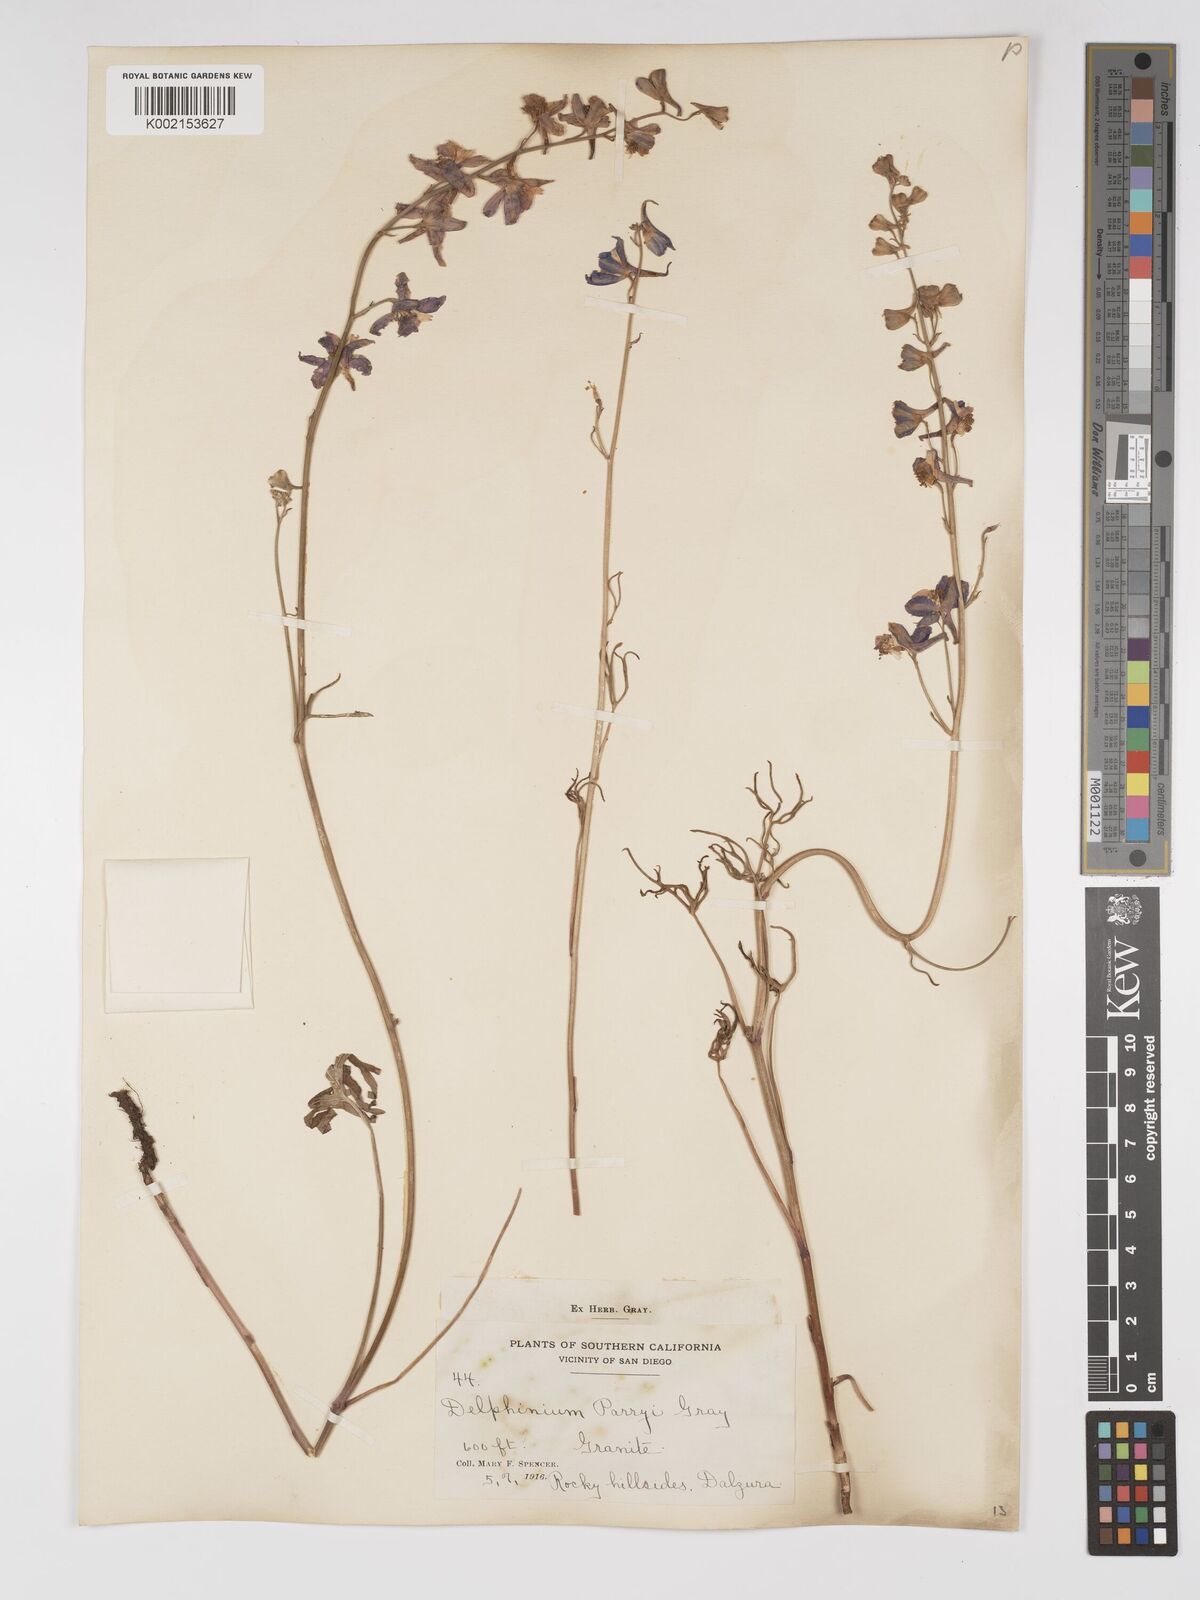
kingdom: Plantae
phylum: Tracheophyta
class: Magnoliopsida
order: Ranunculales
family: Ranunculaceae
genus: Delphinium
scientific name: Delphinium parryi
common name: Parry's larkspur
